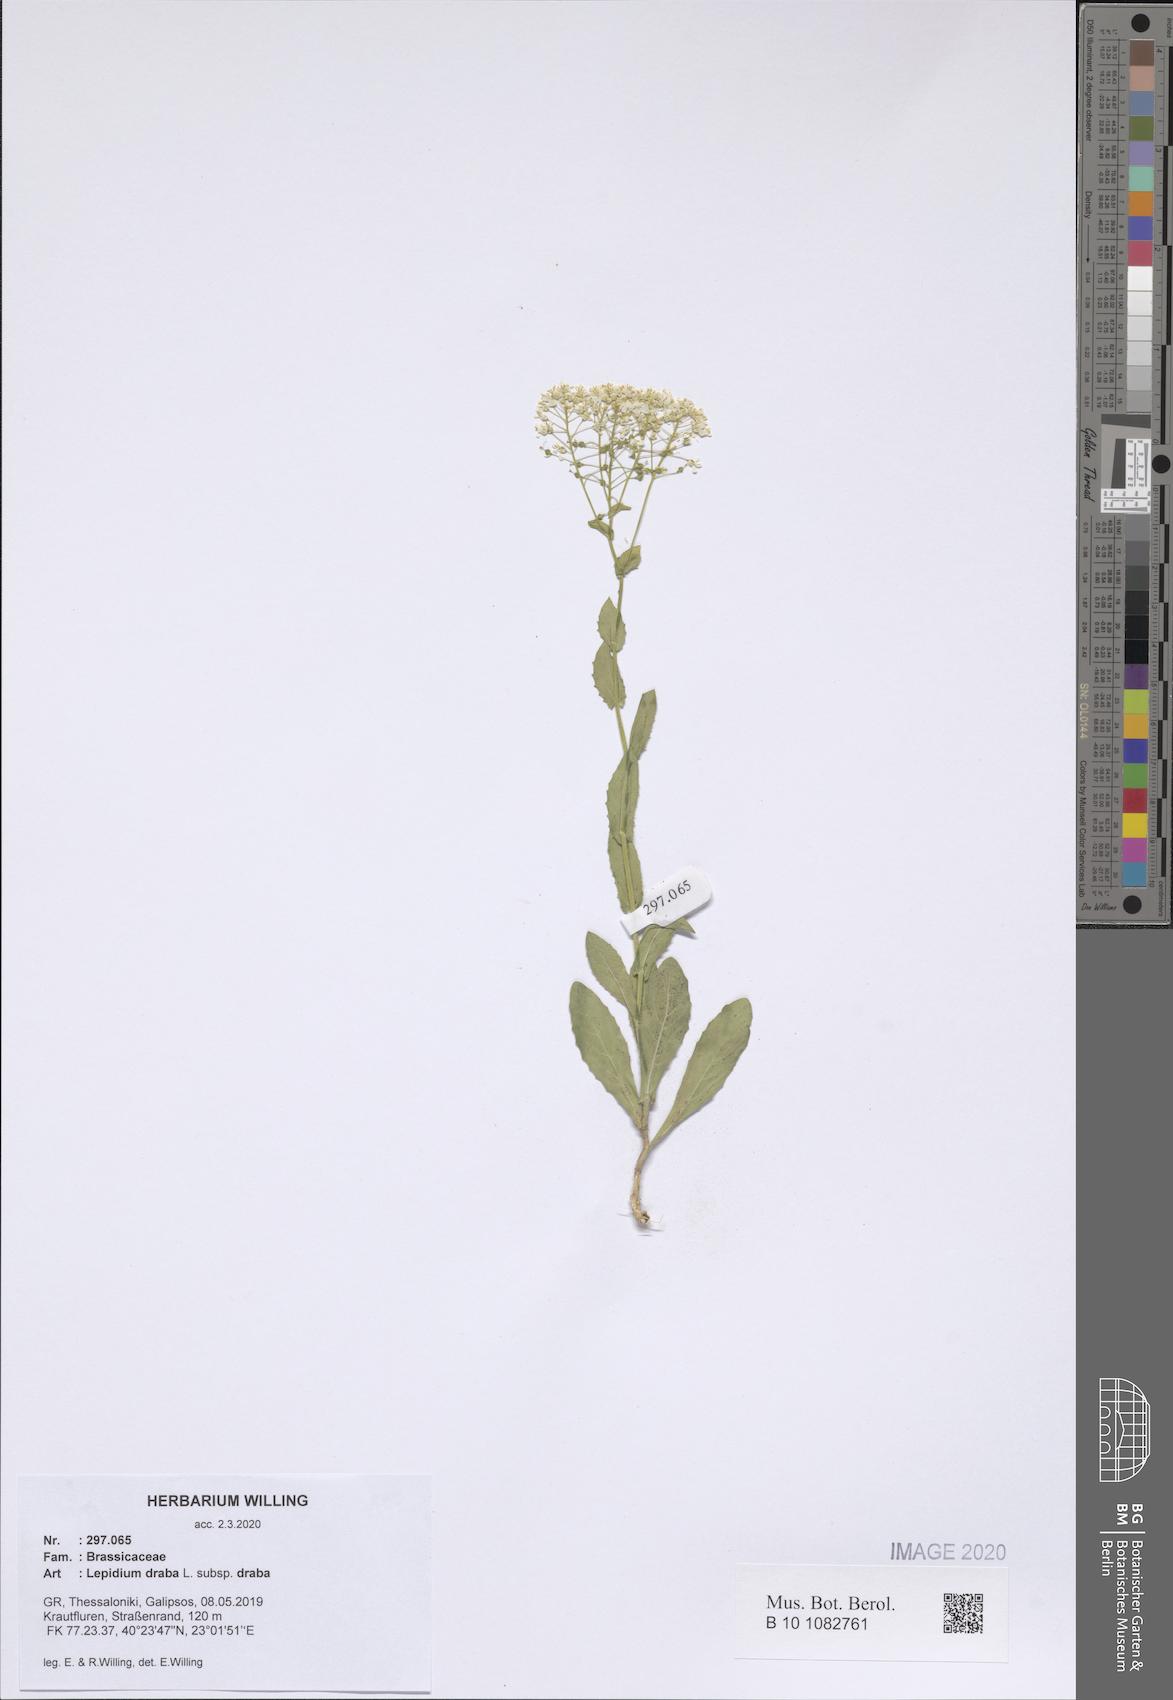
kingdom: Plantae
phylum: Tracheophyta
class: Magnoliopsida
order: Brassicales
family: Brassicaceae
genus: Lepidium
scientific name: Lepidium draba
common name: Hoary cress
